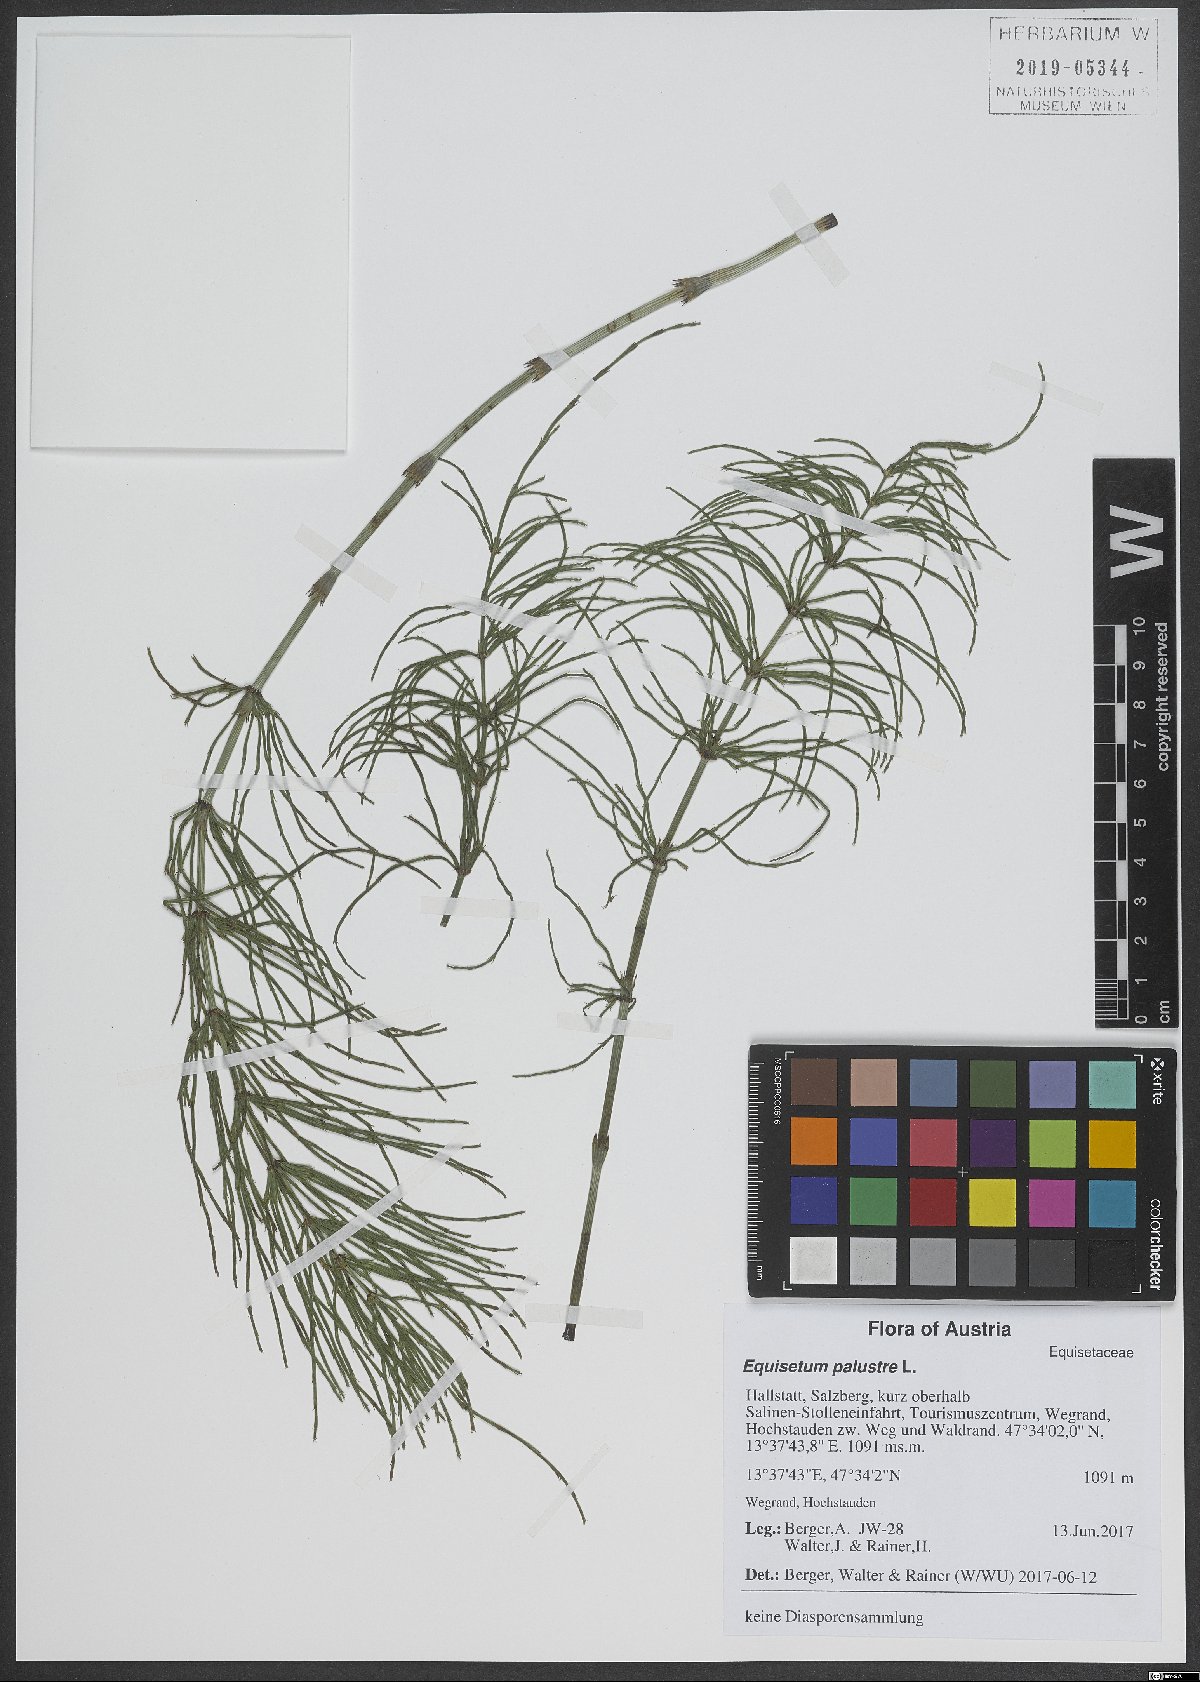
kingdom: Plantae
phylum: Tracheophyta
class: Polypodiopsida
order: Equisetales
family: Equisetaceae
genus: Equisetum
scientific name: Equisetum palustre
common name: Marsh horsetail
